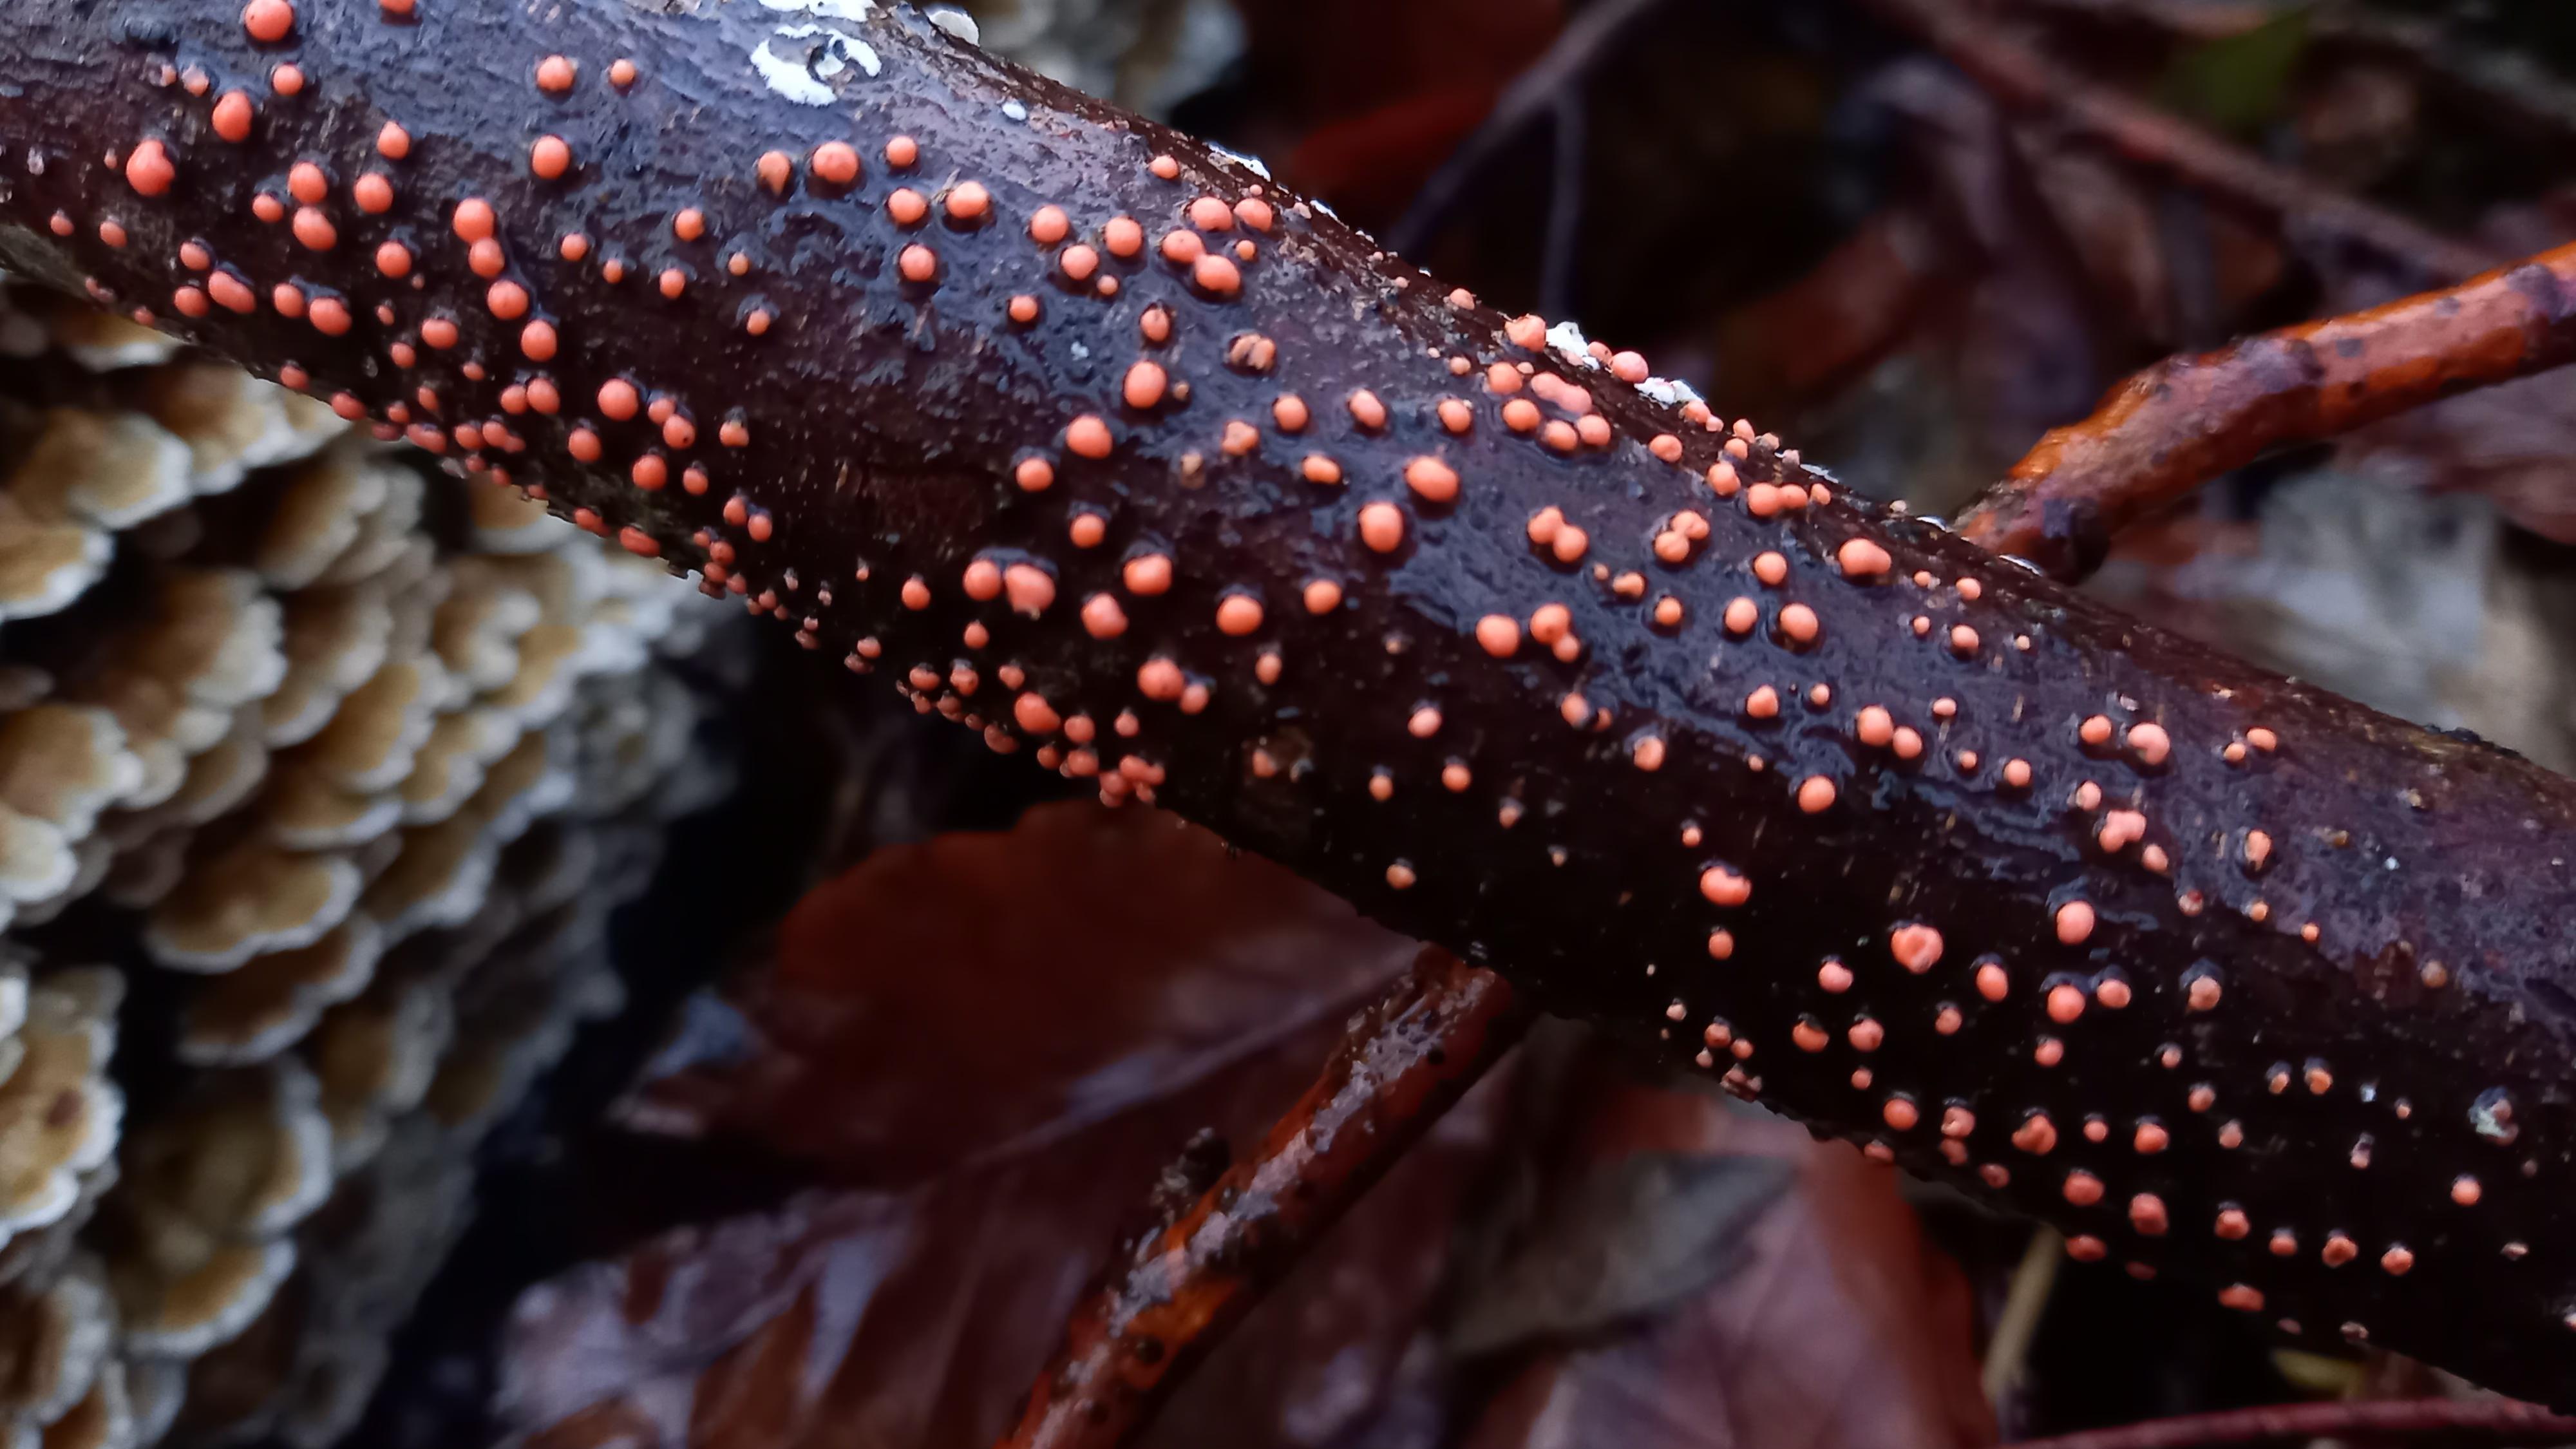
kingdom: Fungi
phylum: Ascomycota
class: Sordariomycetes
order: Hypocreales
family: Nectriaceae
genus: Nectria
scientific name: Nectria cinnabarina
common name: almindelig cinnobersvamp
